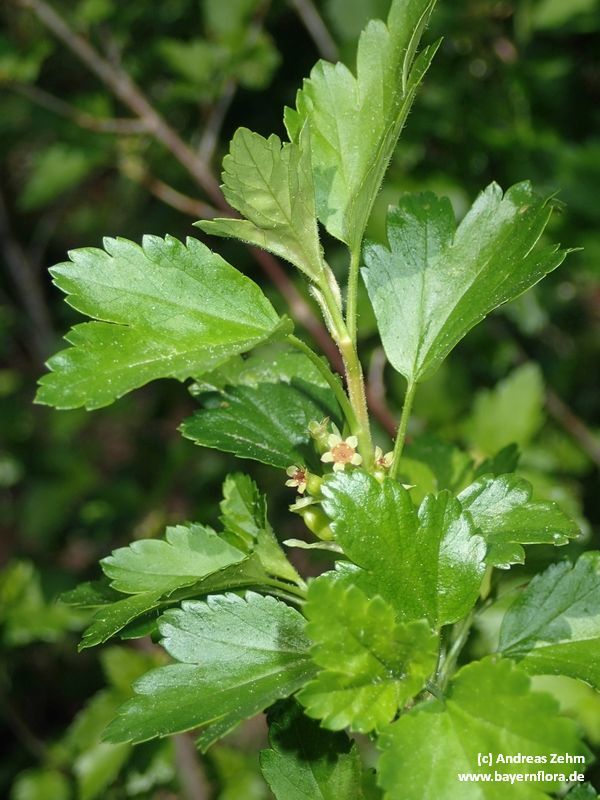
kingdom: Plantae
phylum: Tracheophyta
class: Magnoliopsida
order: Saxifragales
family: Grossulariaceae
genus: Ribes
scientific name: Ribes alpinum
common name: Alpine currant
